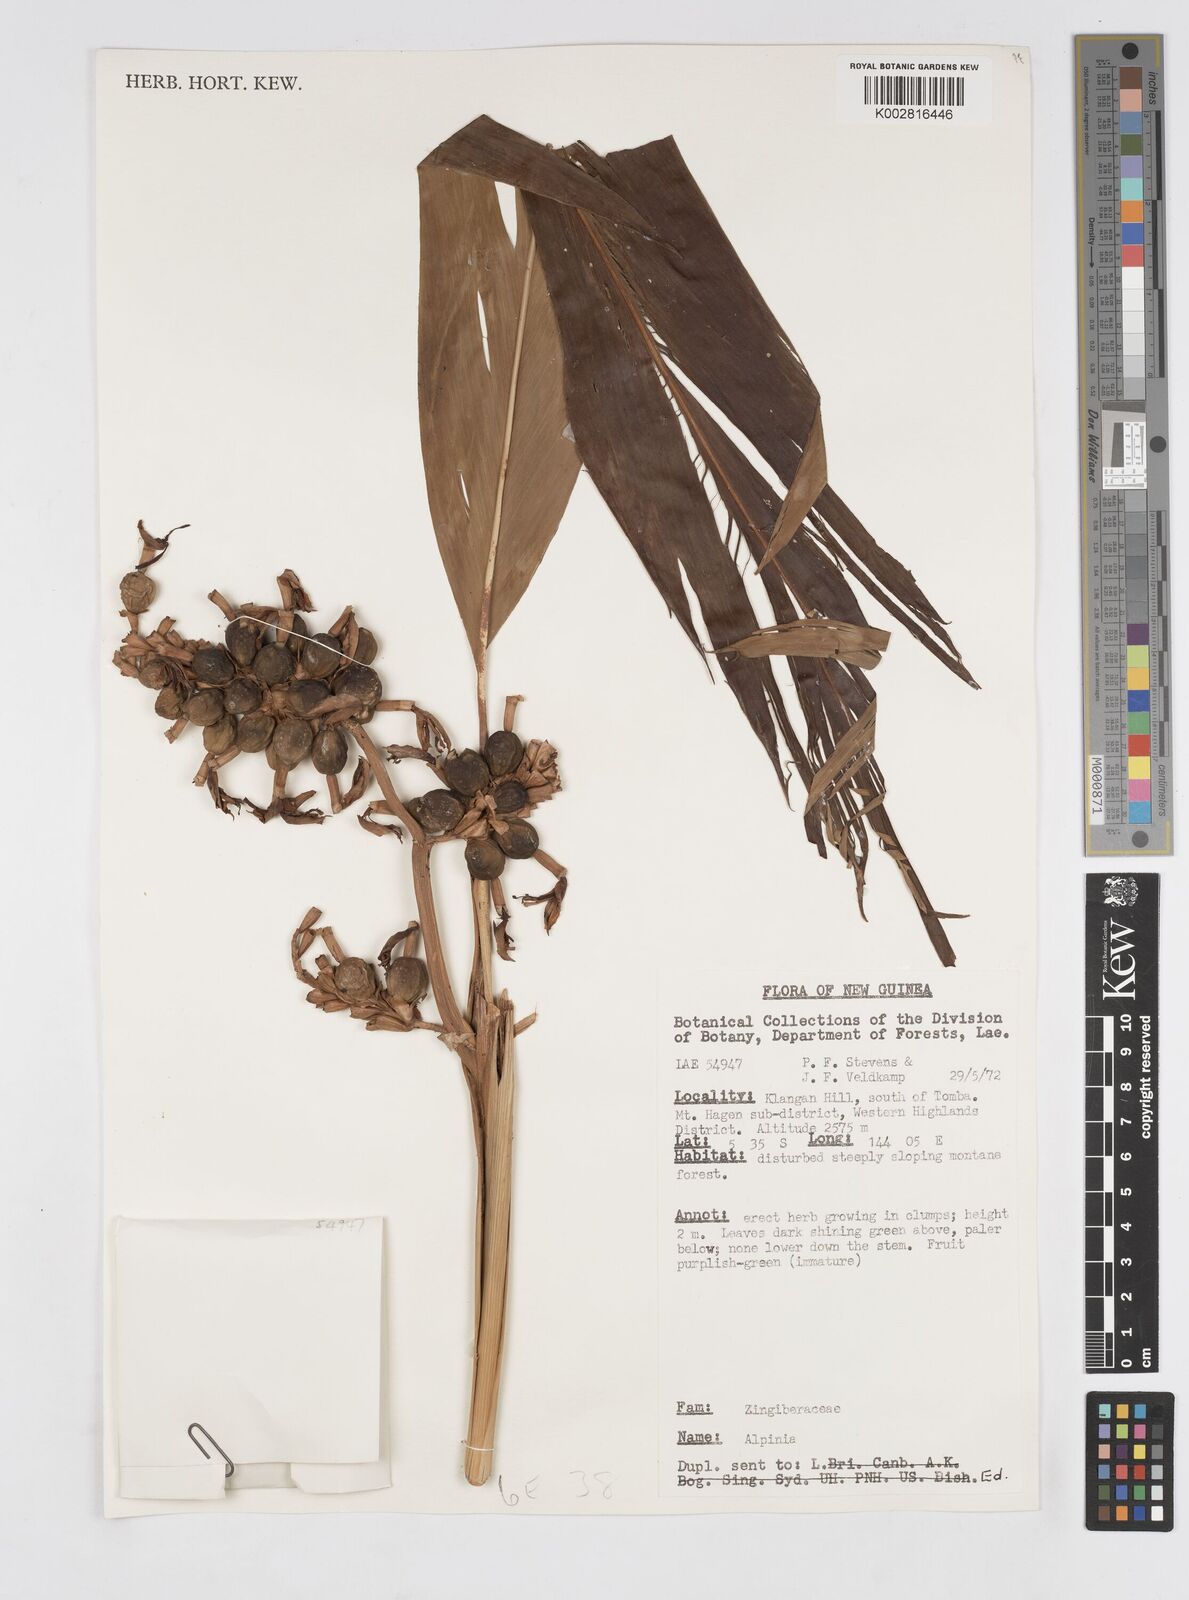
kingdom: Plantae
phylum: Tracheophyta
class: Liliopsida
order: Zingiberales
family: Zingiberaceae
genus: Alpinia
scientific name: Alpinia
